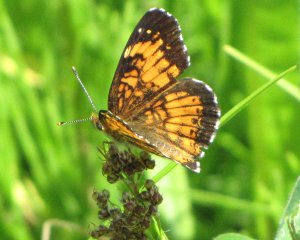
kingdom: Animalia
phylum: Arthropoda
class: Insecta
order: Lepidoptera
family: Nymphalidae
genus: Chlosyne
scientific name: Chlosyne harrisii
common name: Harris's Checkerspot
